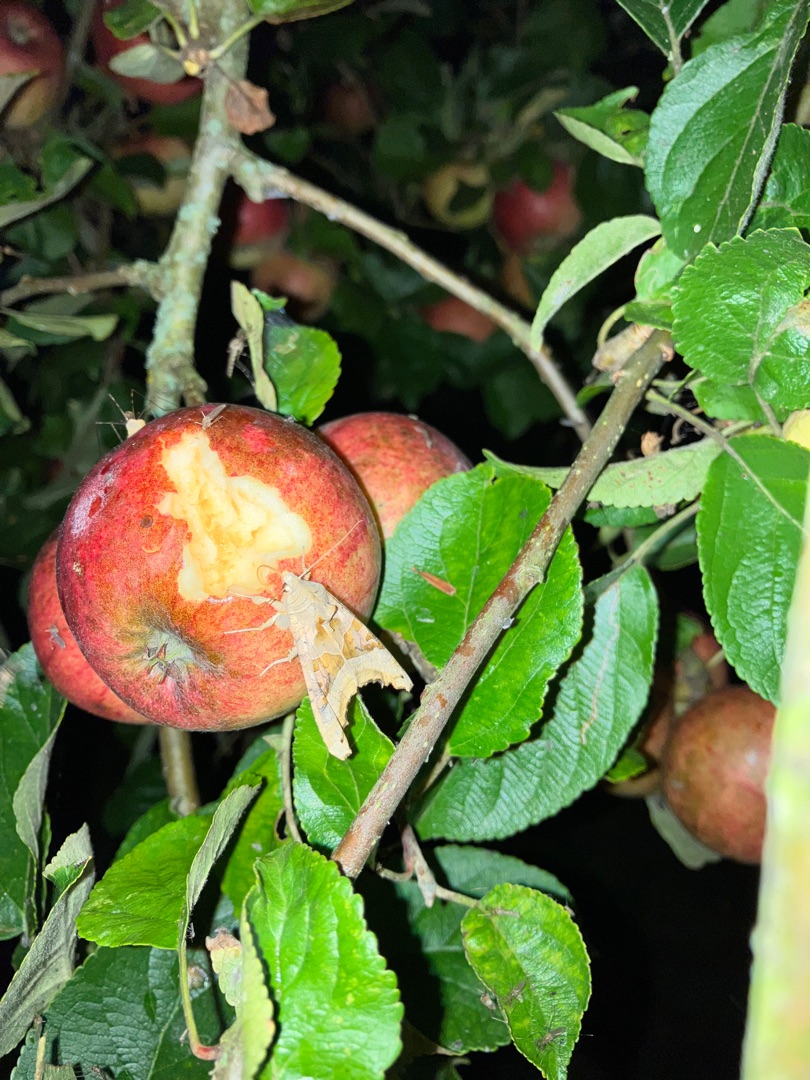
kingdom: Animalia
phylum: Arthropoda
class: Insecta
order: Lepidoptera
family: Noctuidae
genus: Phlogophora
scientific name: Phlogophora meticulosa
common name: Agatugle
